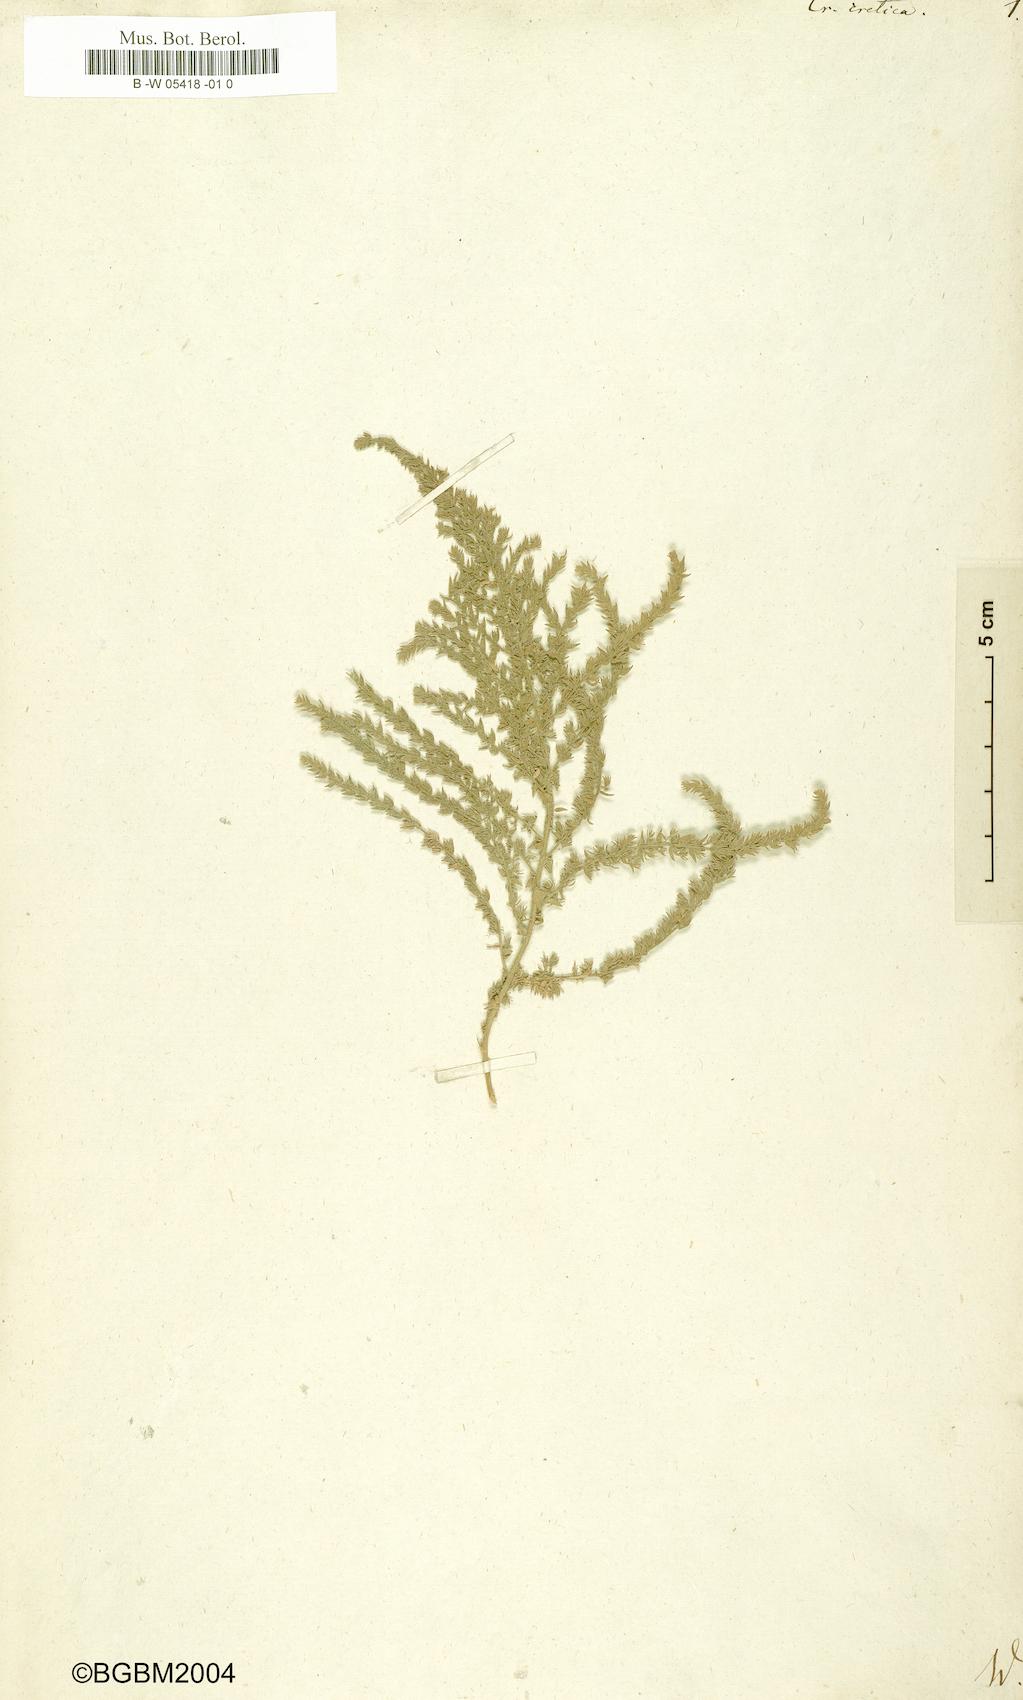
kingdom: Plantae
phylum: Tracheophyta
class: Magnoliopsida
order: Solanales
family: Convolvulaceae
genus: Cressa
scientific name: Cressa cretica
